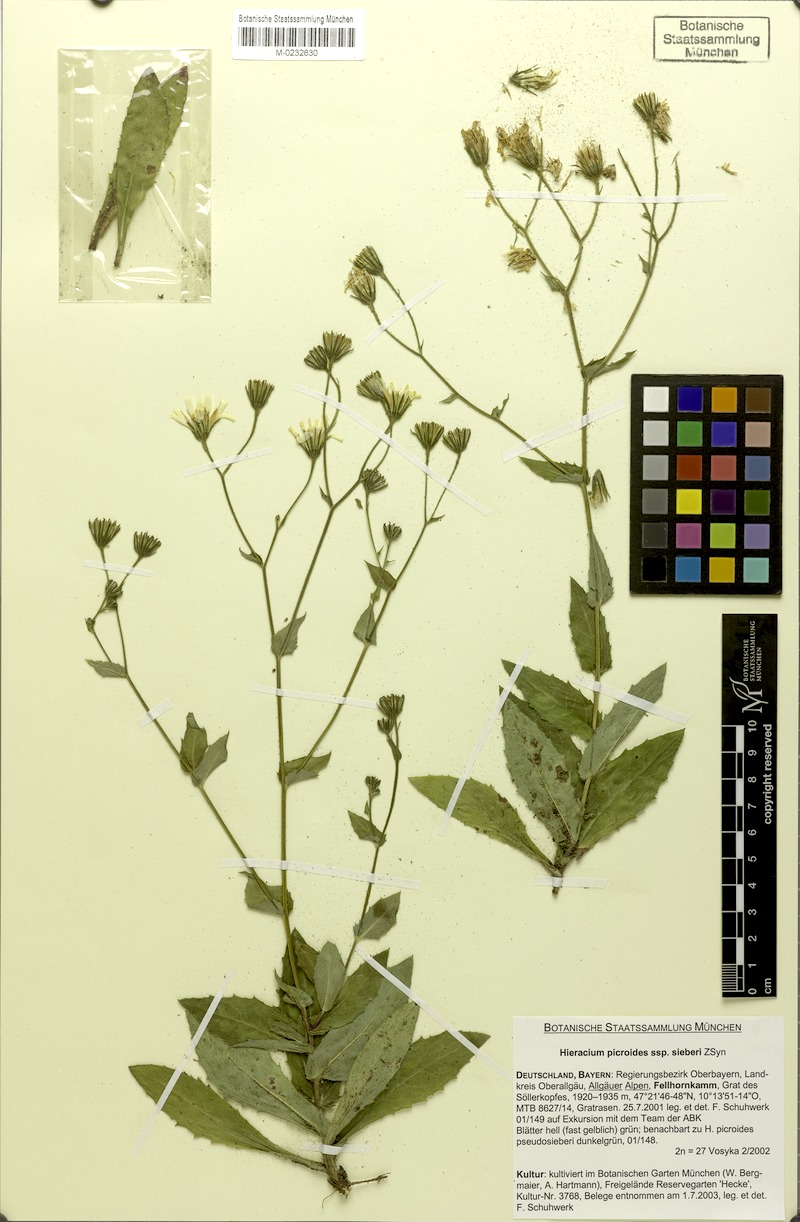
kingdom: Plantae
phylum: Tracheophyta
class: Magnoliopsida
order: Asterales
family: Asteraceae
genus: Hieracium
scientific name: Hieracium picroides
